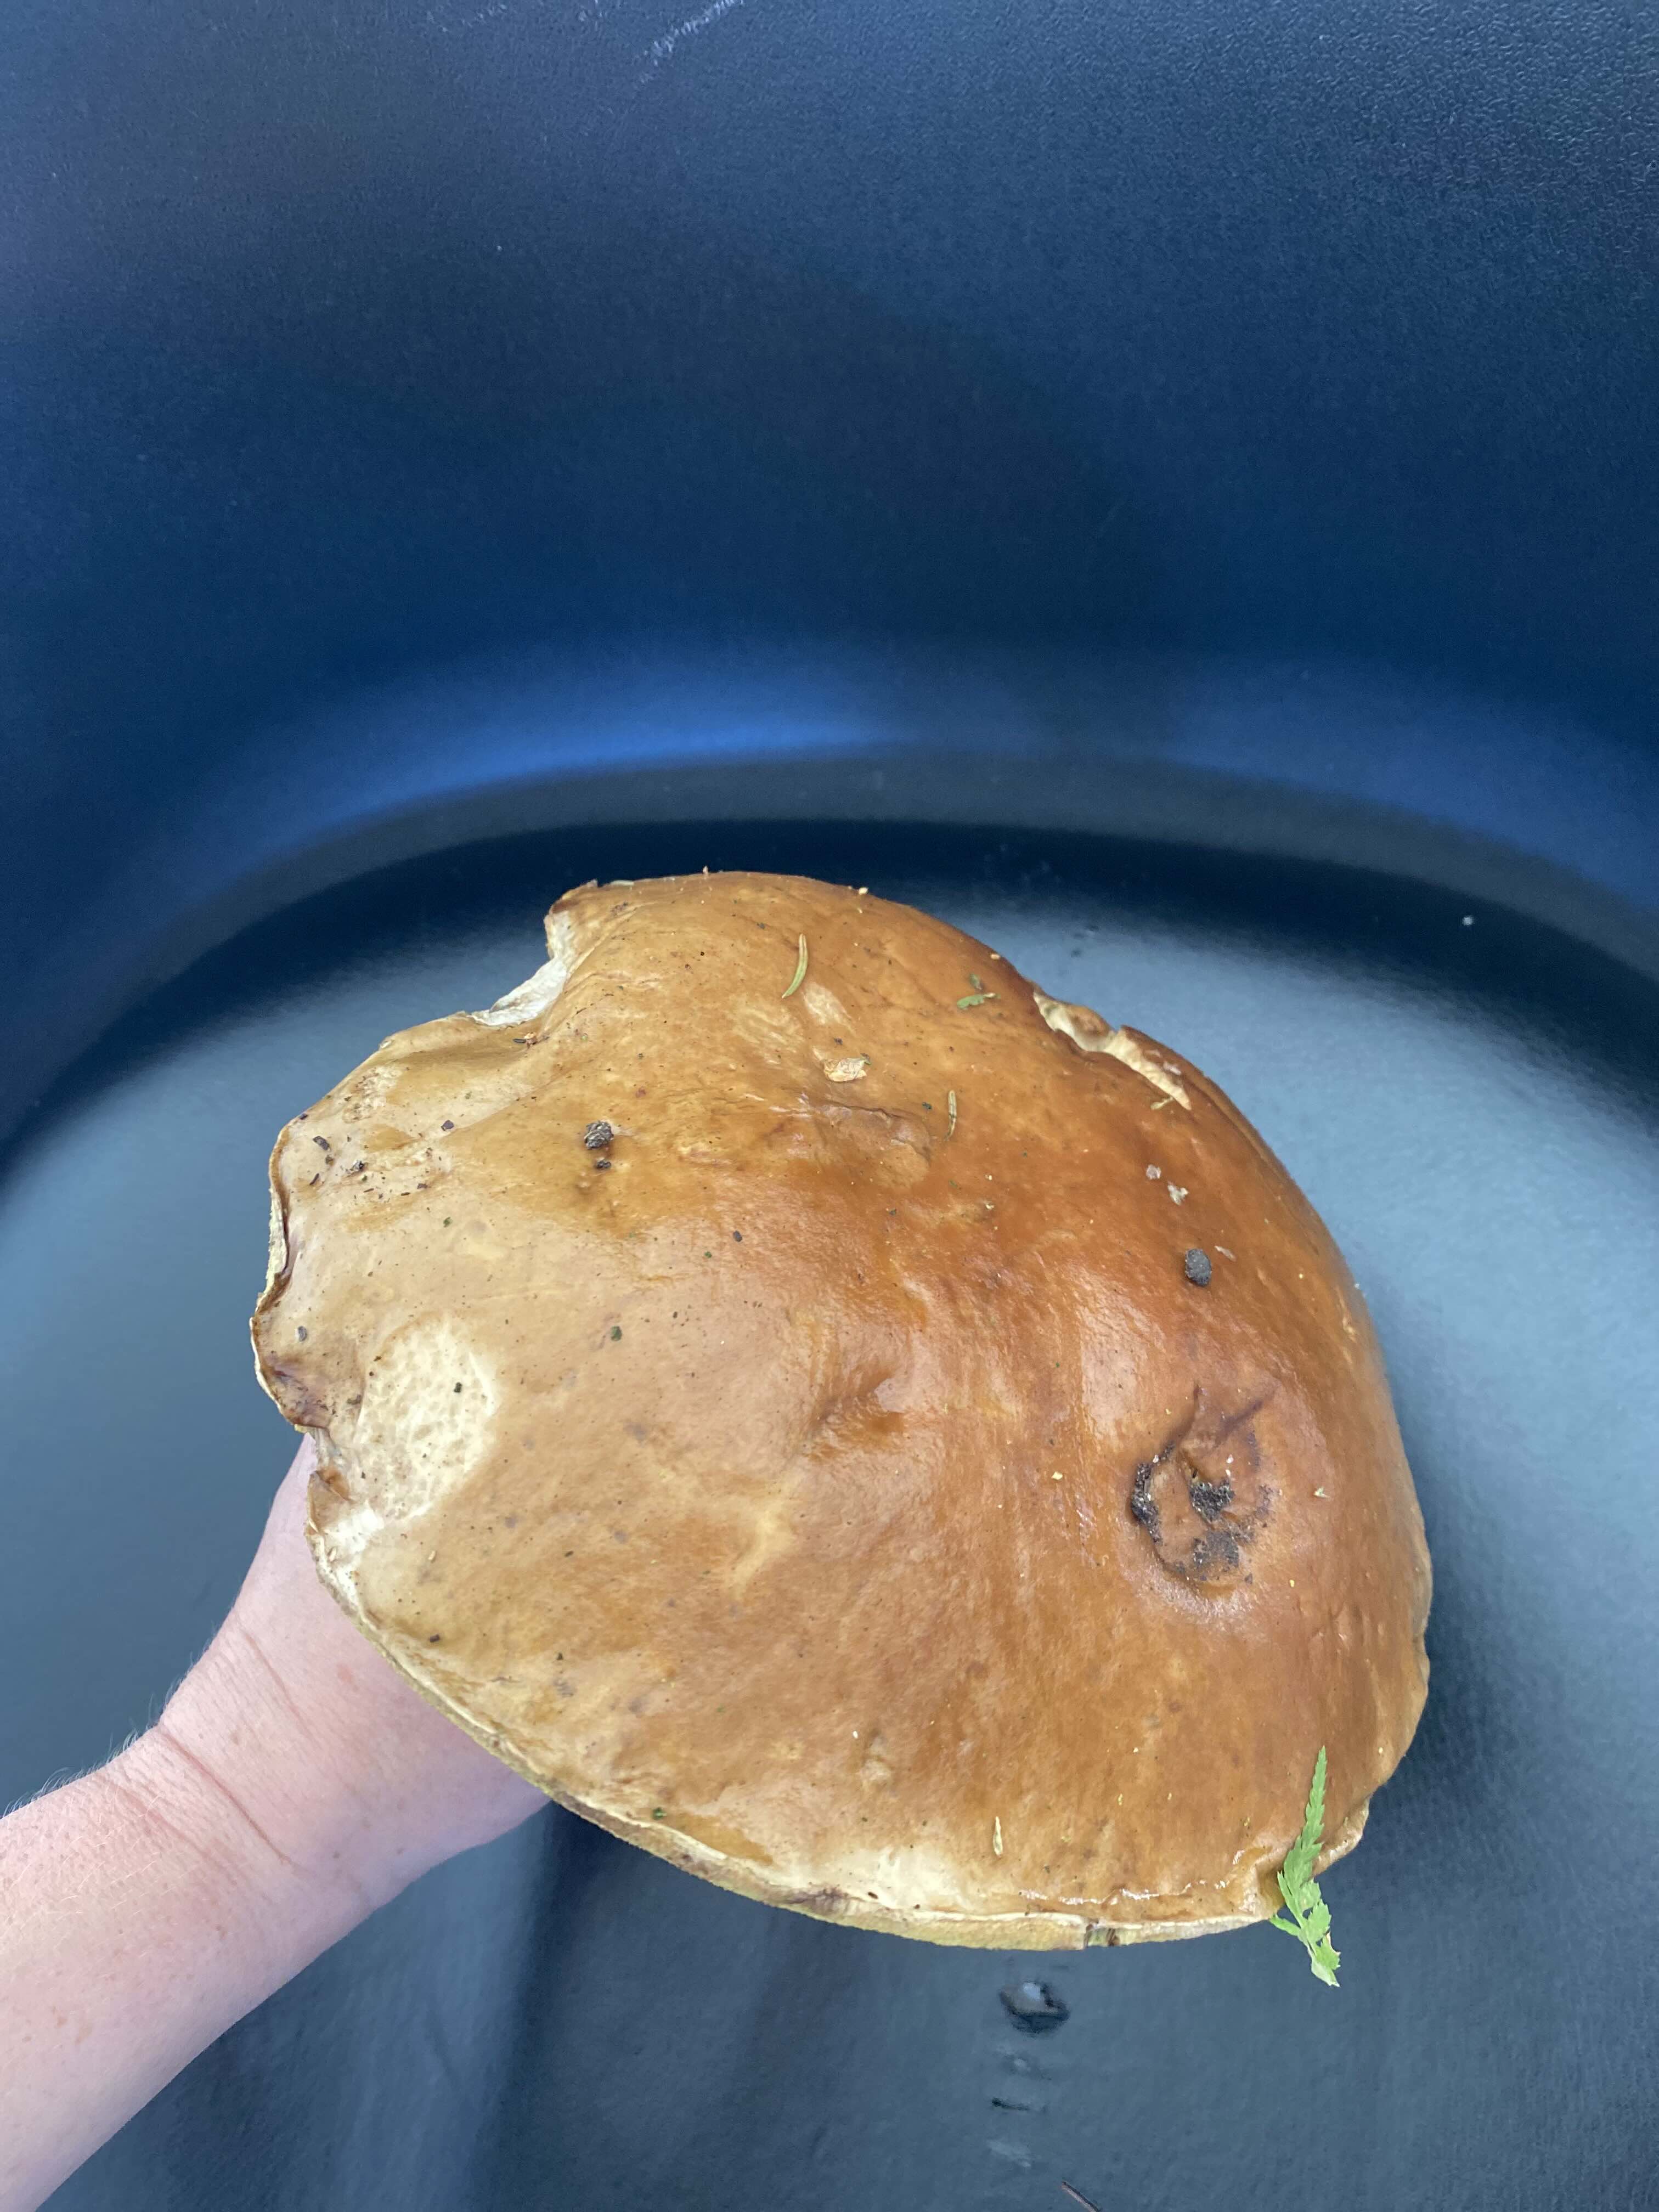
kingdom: Fungi
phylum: Basidiomycota
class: Agaricomycetes
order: Boletales
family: Boletaceae
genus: Boletus
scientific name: Boletus edulis
